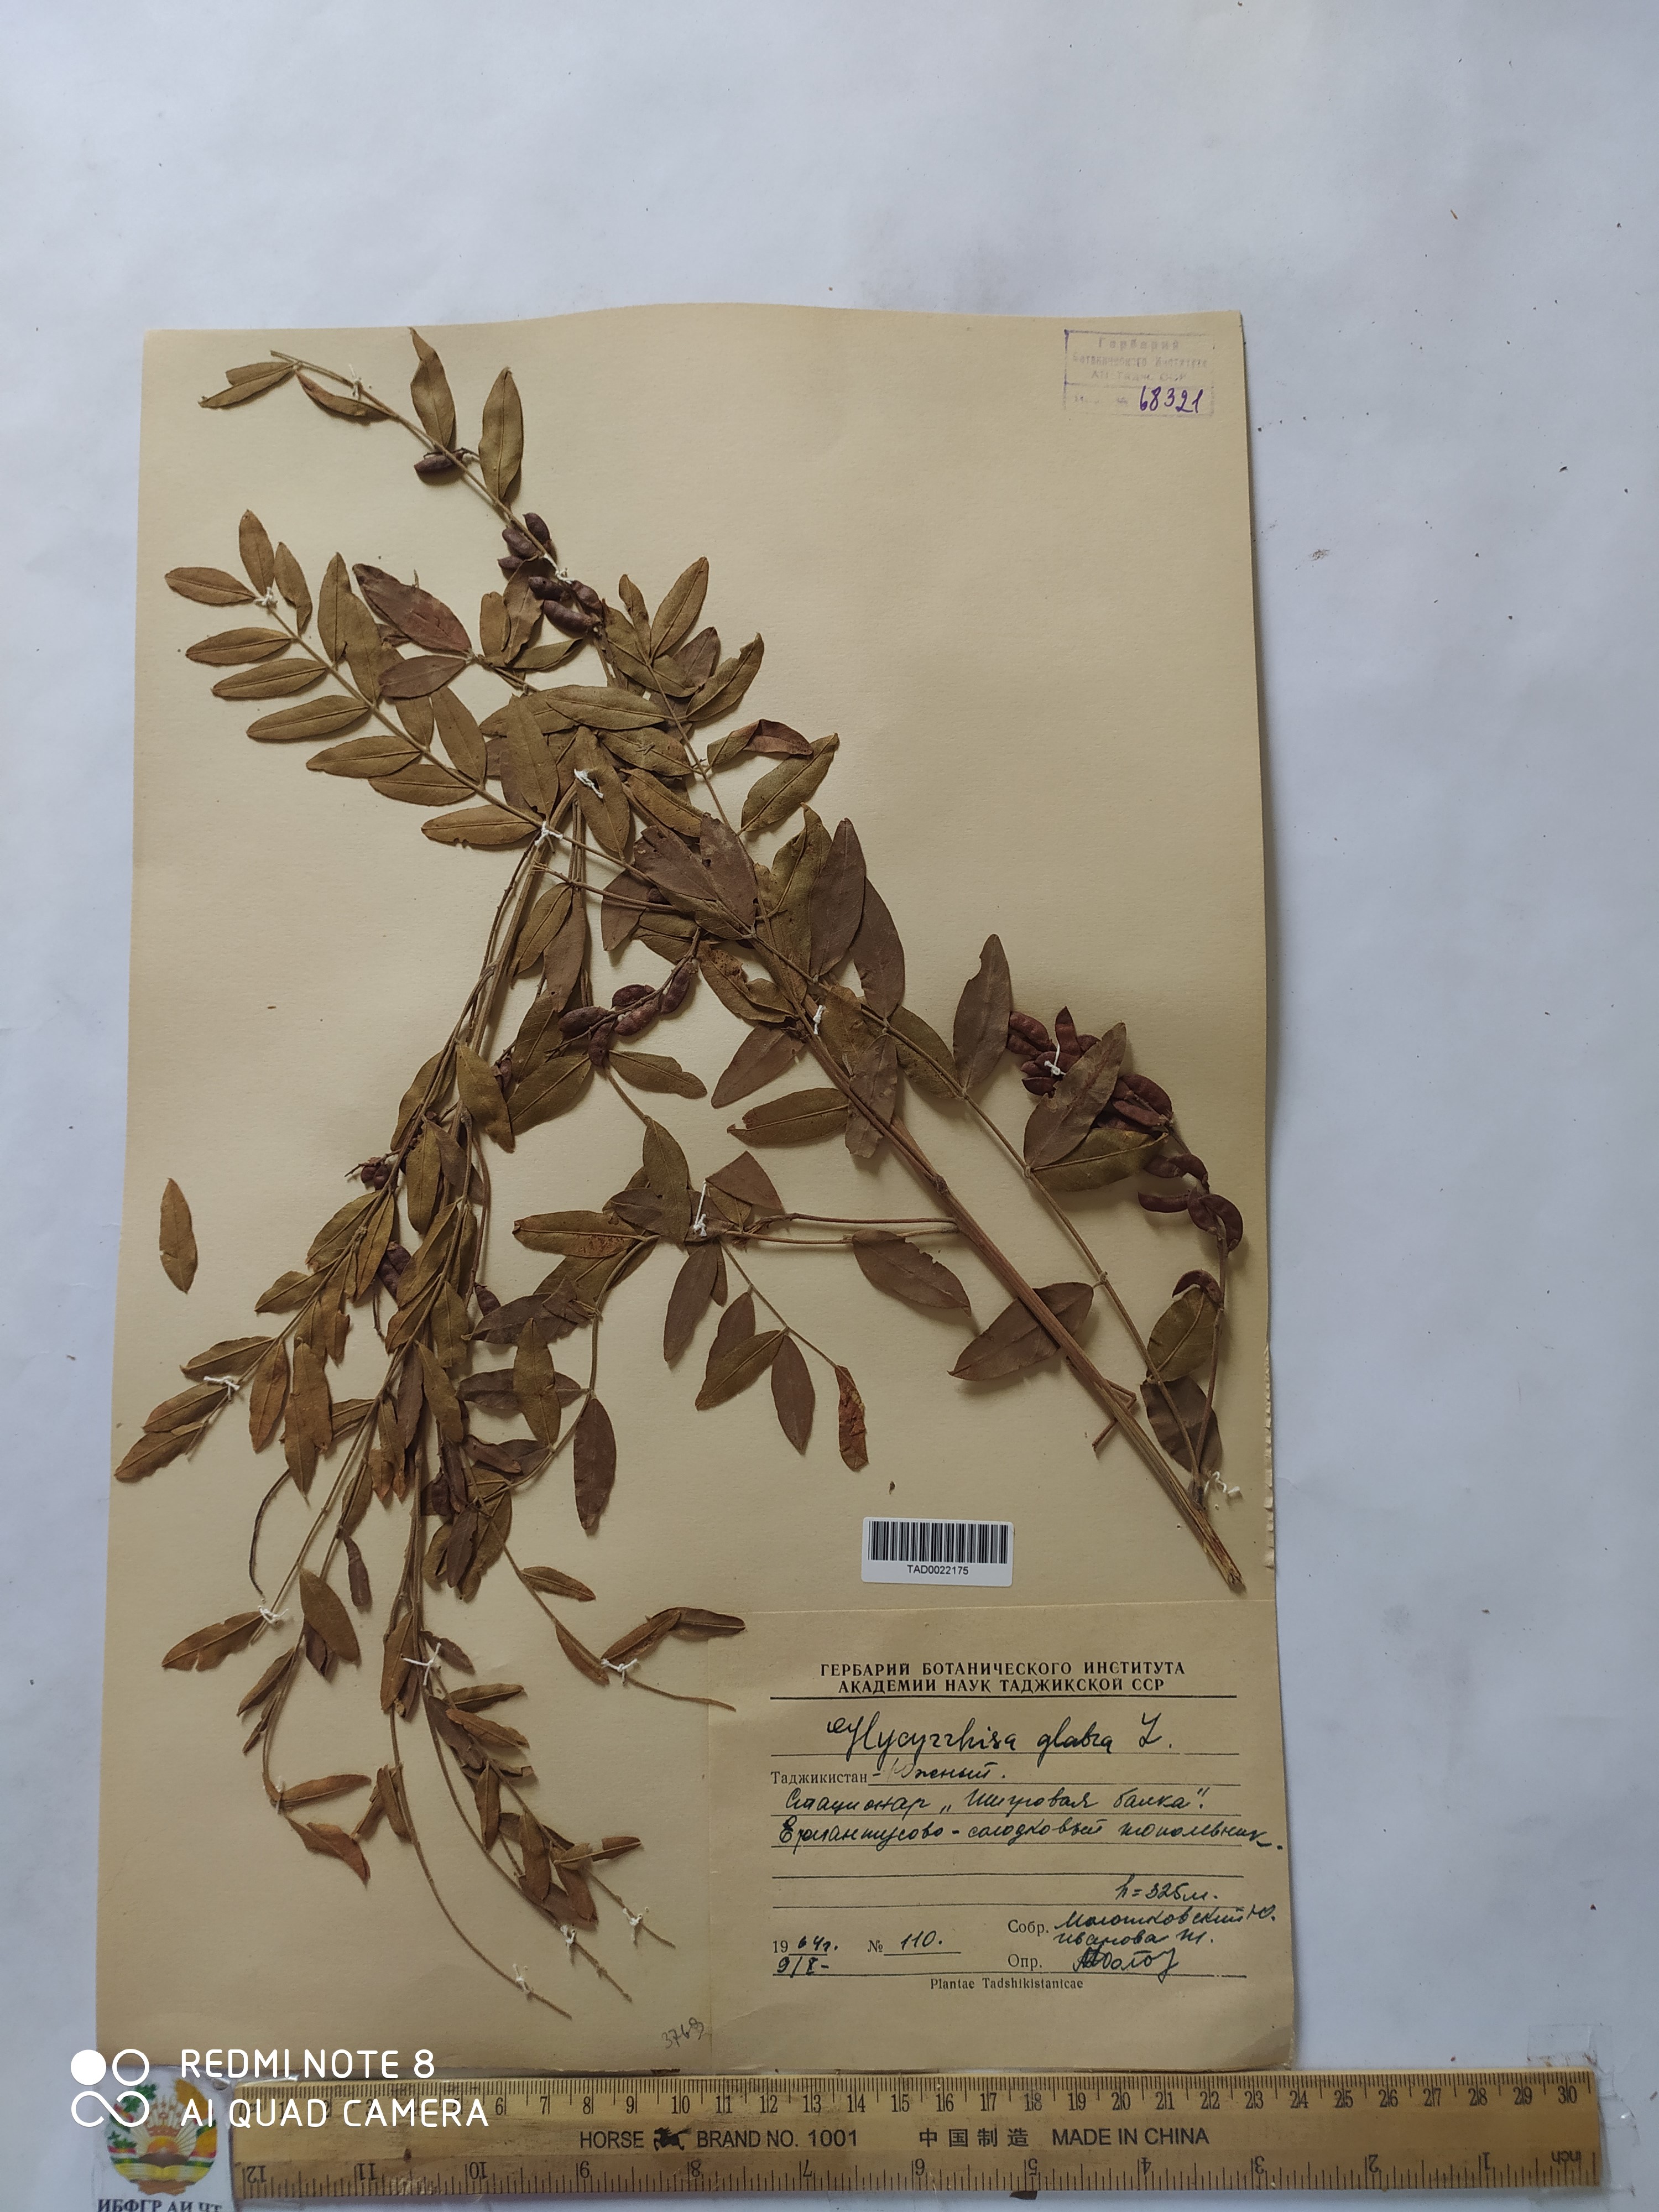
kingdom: Plantae
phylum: Tracheophyta
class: Magnoliopsida
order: Fabales
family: Fabaceae
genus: Glycyrrhiza
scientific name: Glycyrrhiza glabra
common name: Liquorice
